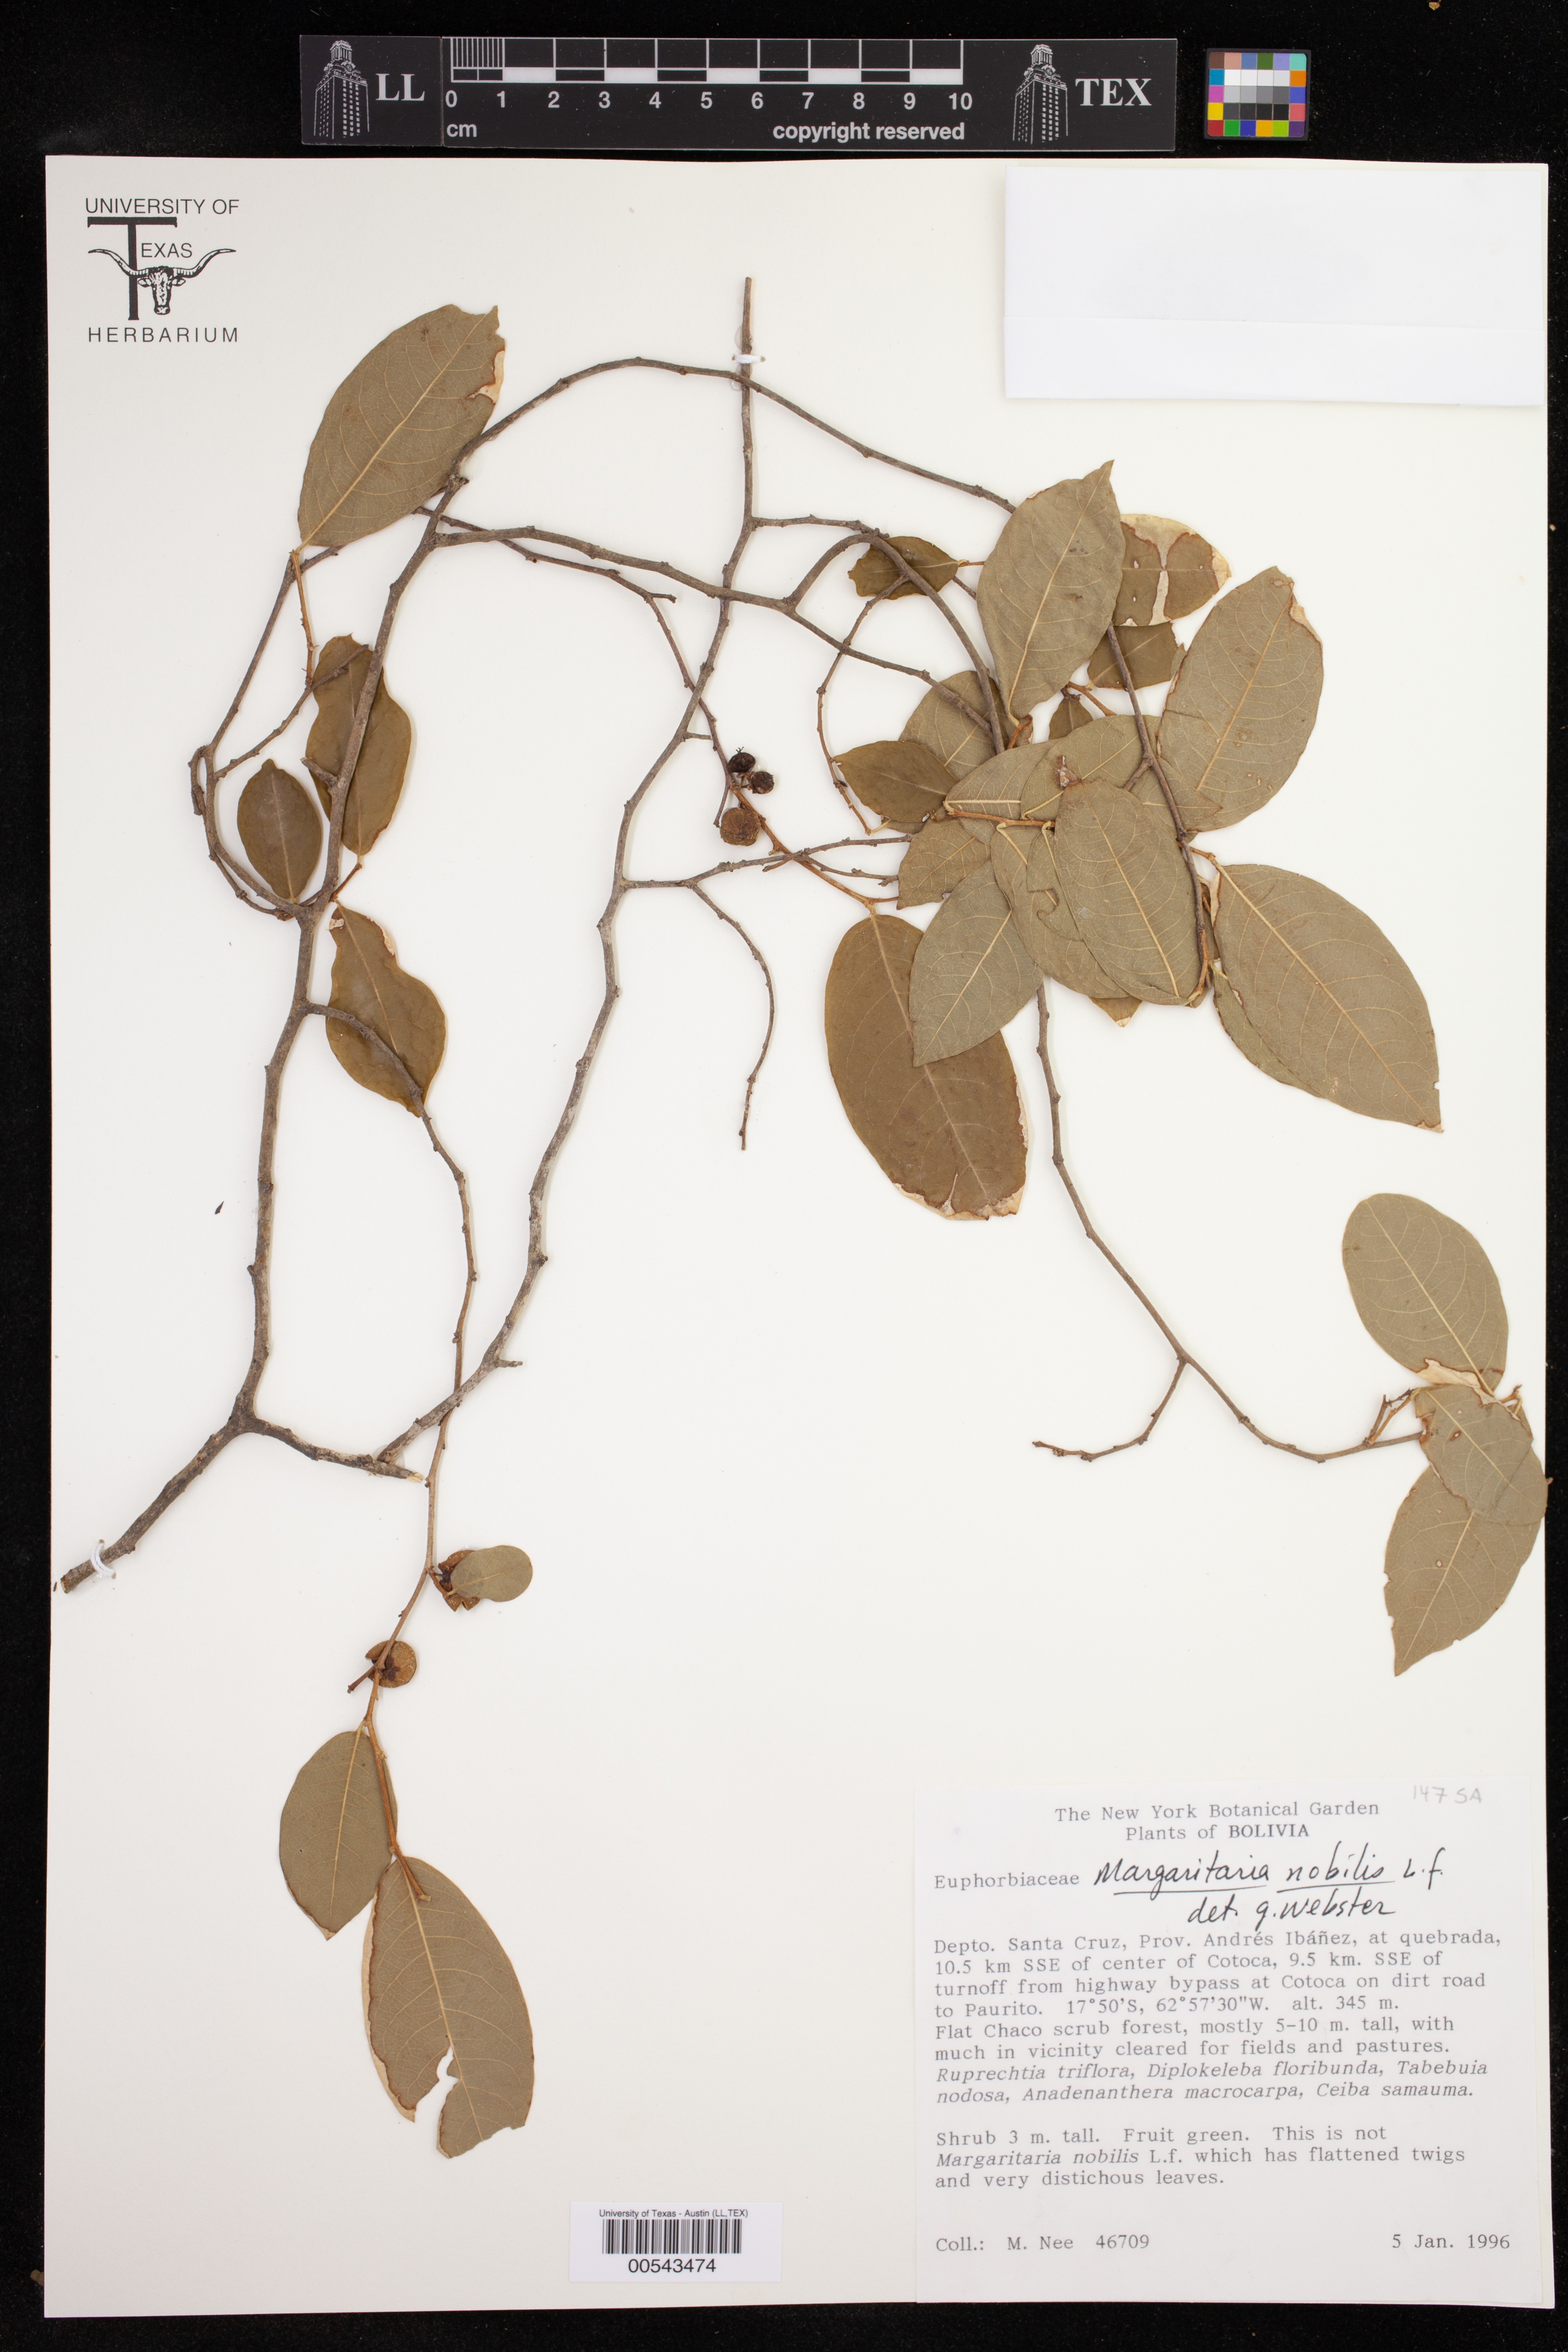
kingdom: Plantae
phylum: Tracheophyta
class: Magnoliopsida
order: Malpighiales
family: Phyllanthaceae
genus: Margaritaria
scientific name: Margaritaria nobilis
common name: Goose berry
